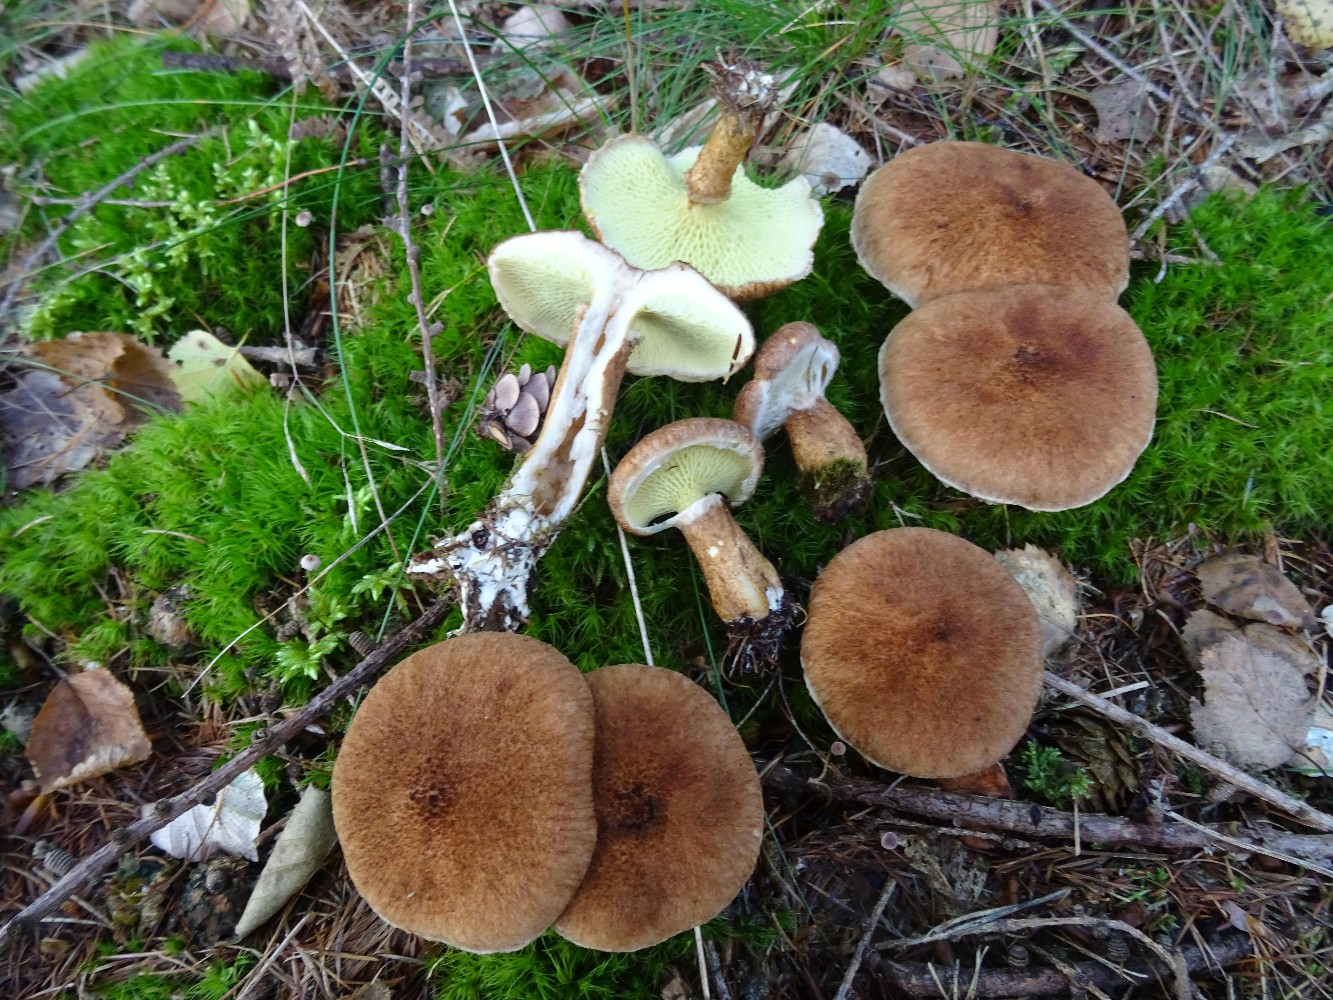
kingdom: Fungi
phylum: Basidiomycota
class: Agaricomycetes
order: Boletales
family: Suillaceae
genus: Suillus
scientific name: Suillus cavipes
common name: hulstokket slimrørhat
